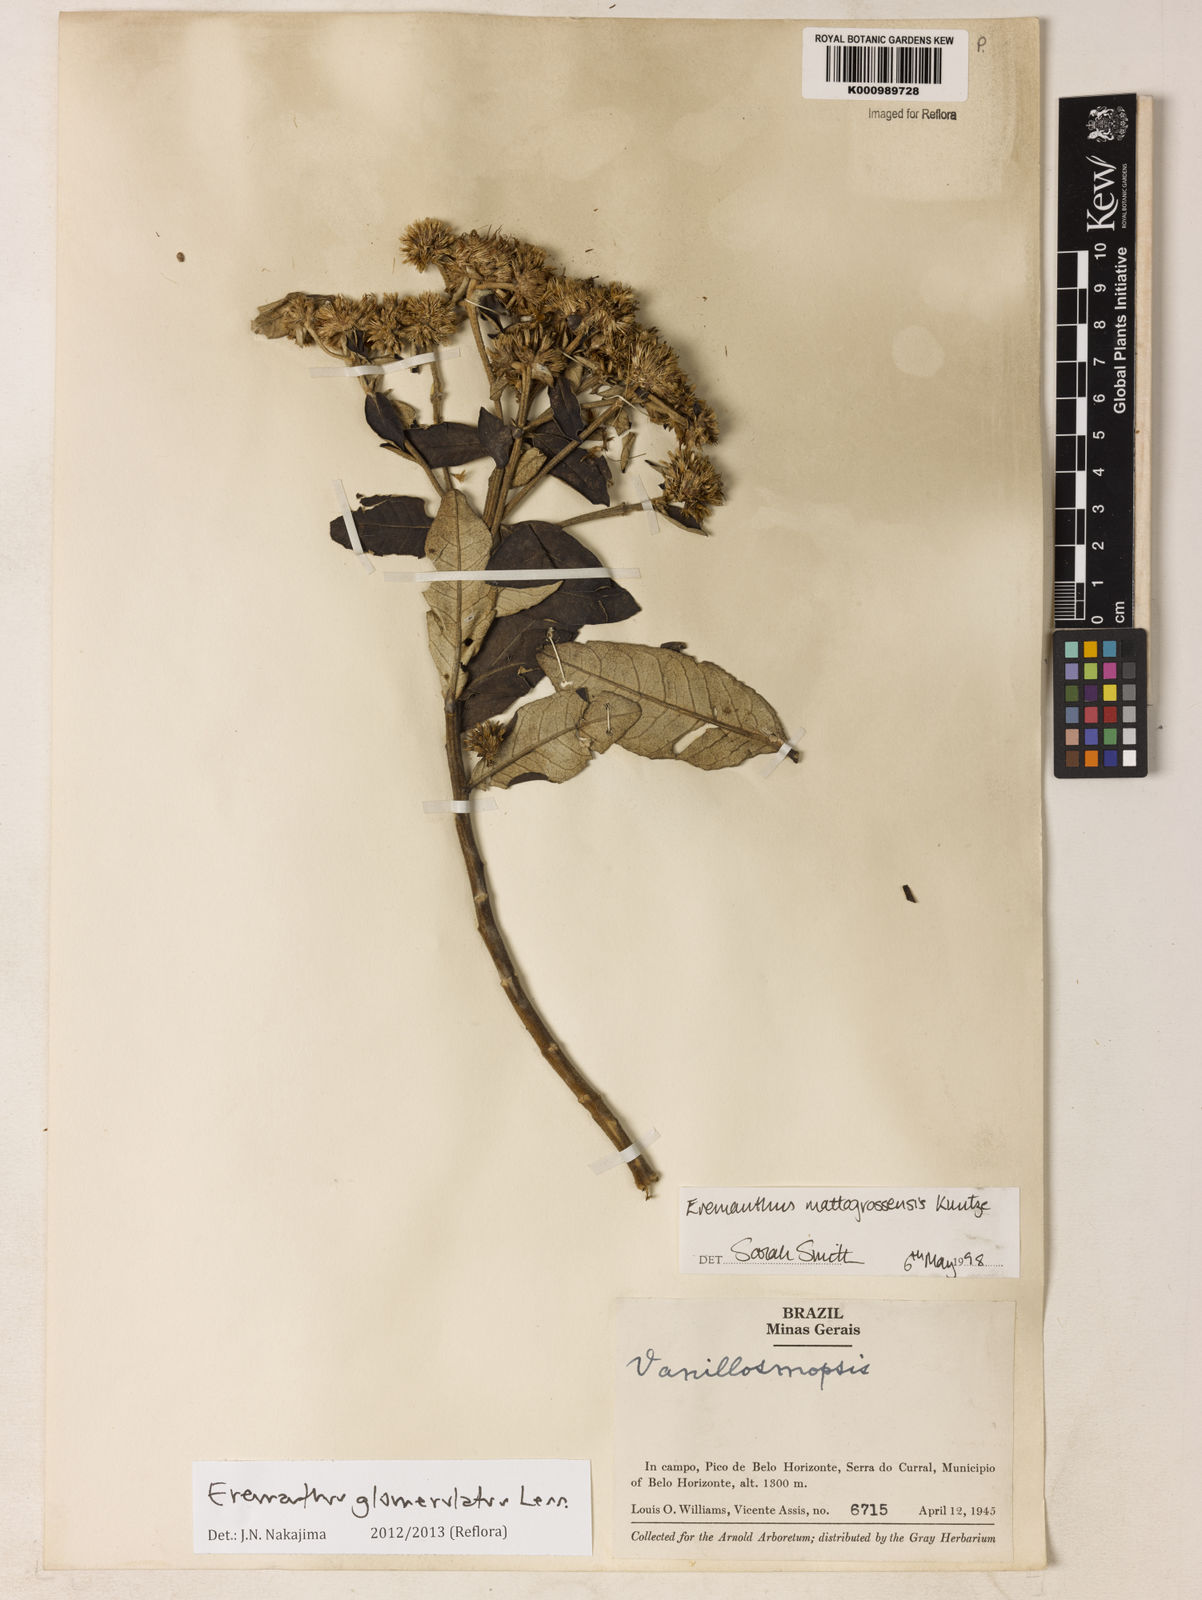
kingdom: Plantae
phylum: Tracheophyta
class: Magnoliopsida
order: Asterales
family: Asteraceae
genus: Eremanthus
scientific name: Eremanthus glomerulatus
